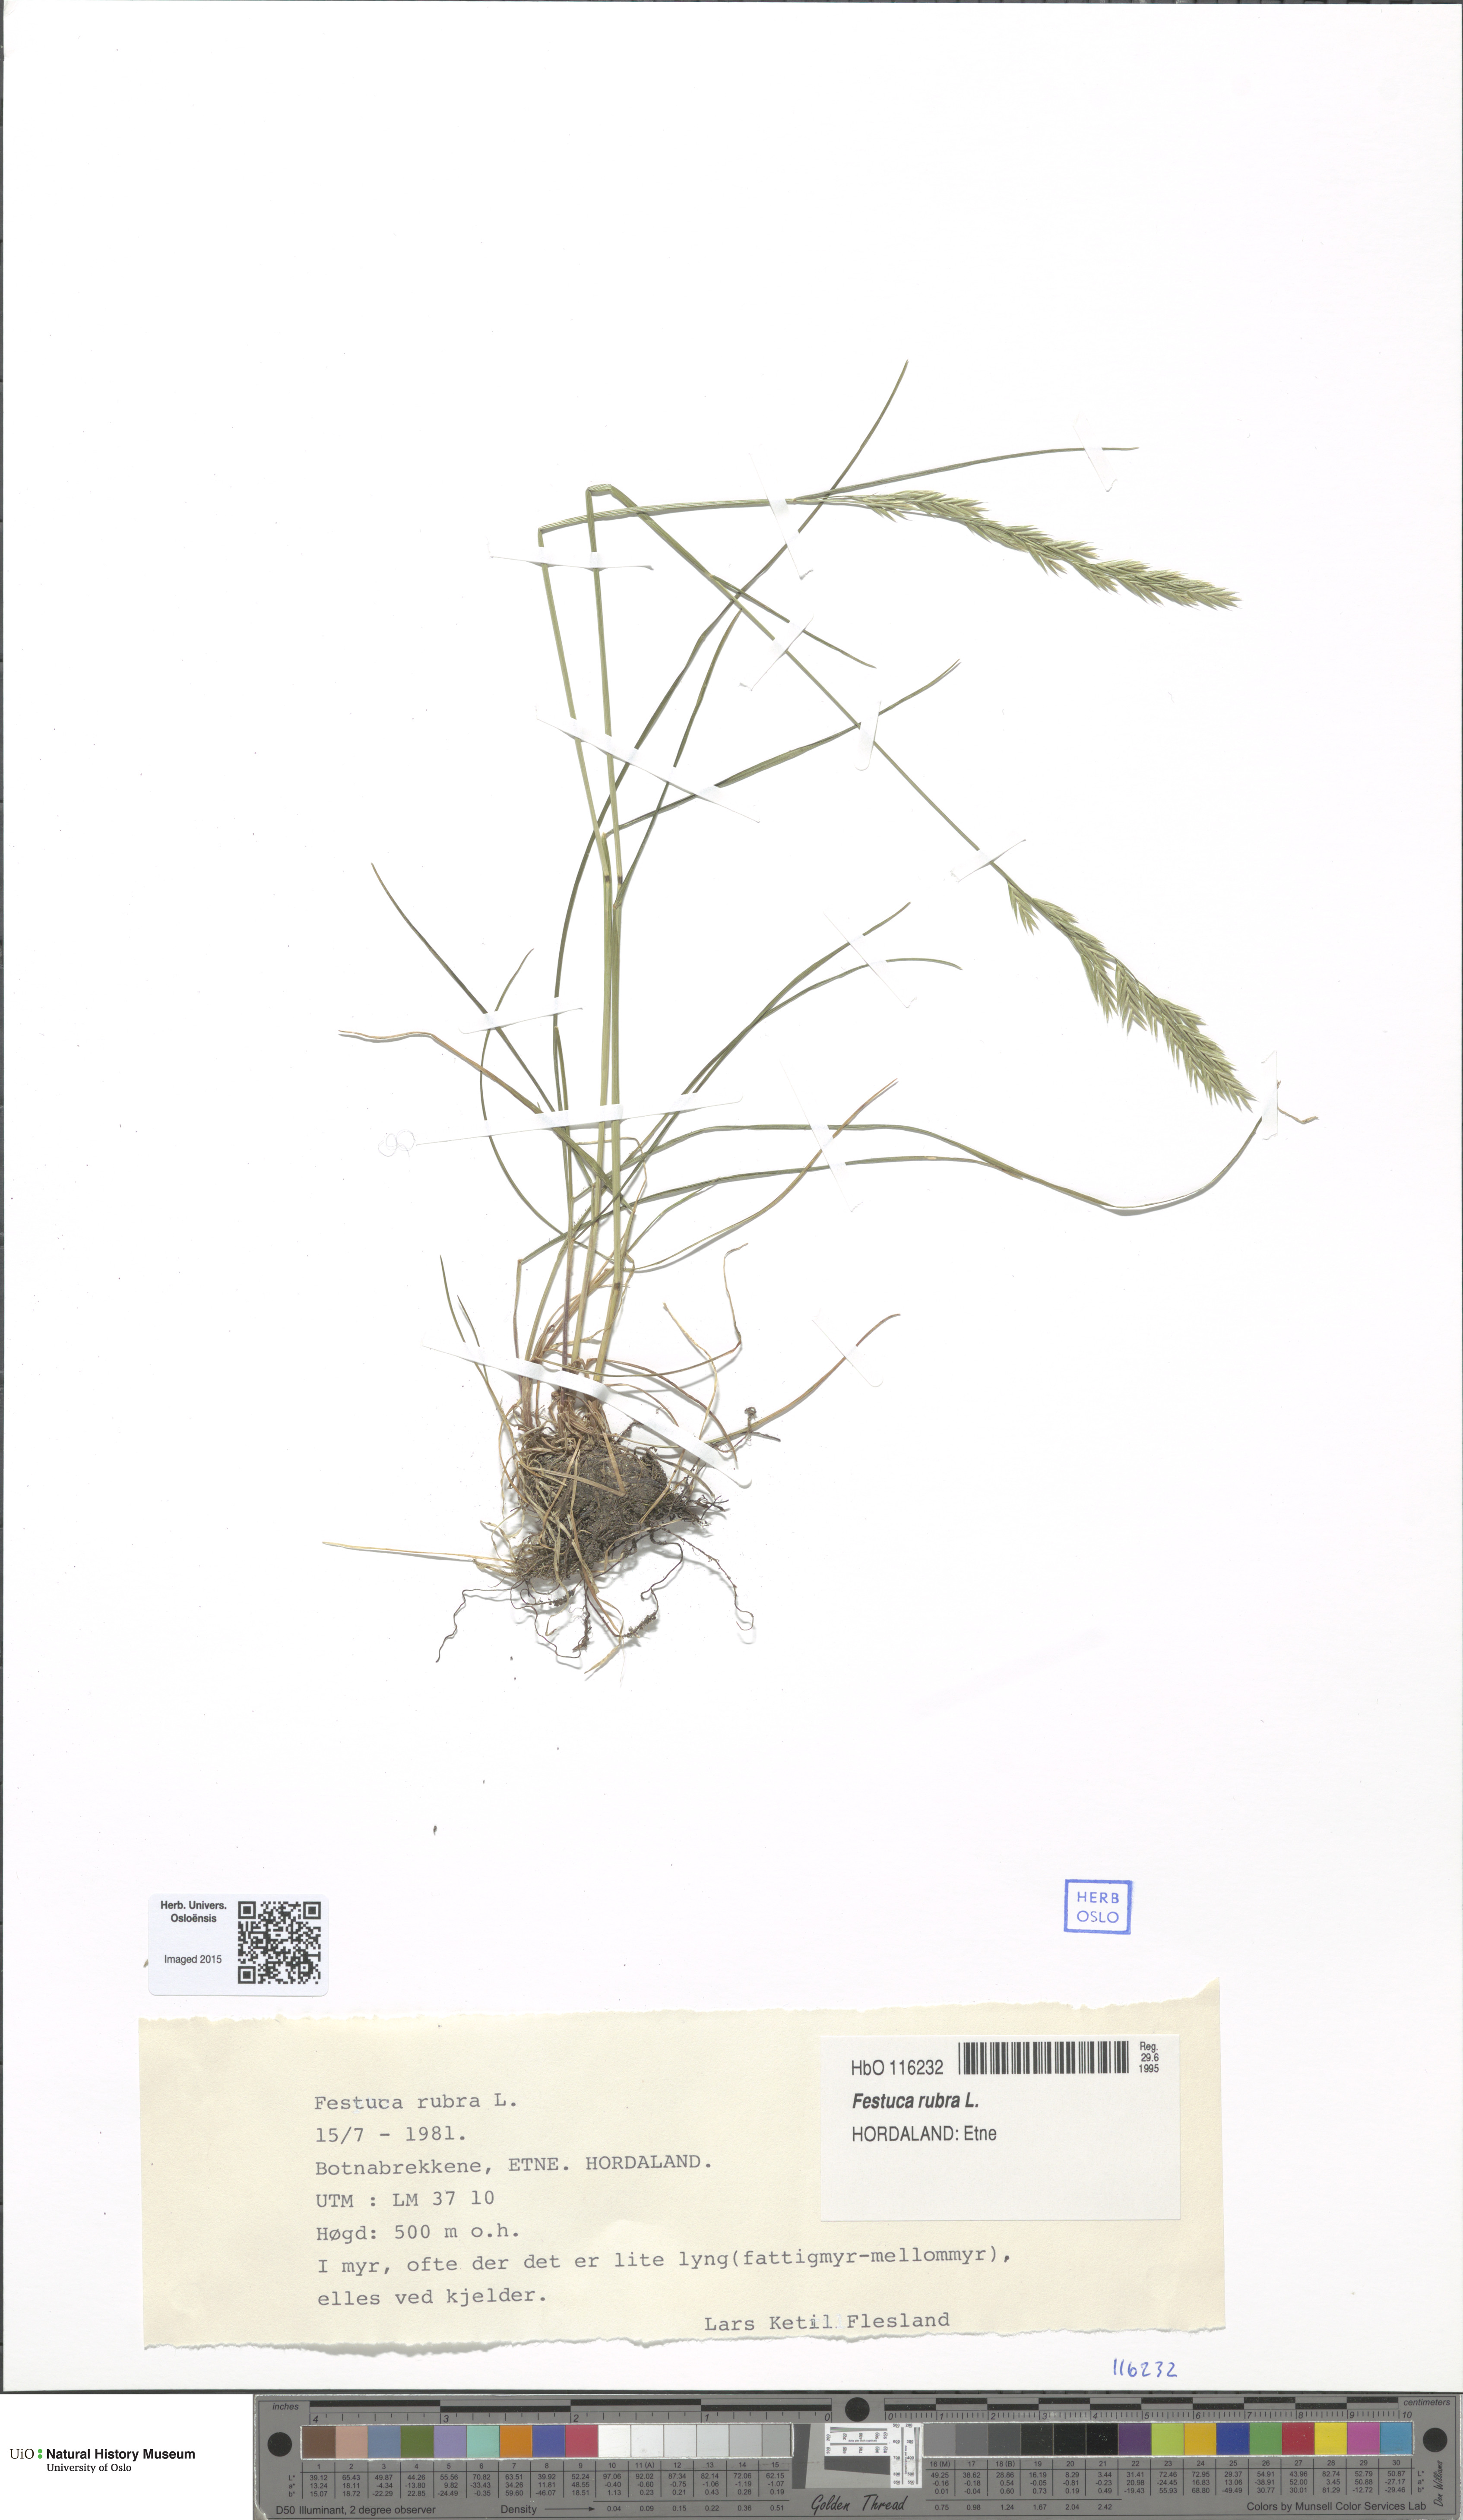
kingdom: Plantae
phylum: Tracheophyta
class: Liliopsida
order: Poales
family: Poaceae
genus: Festuca
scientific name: Festuca rubra
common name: Red fescue
